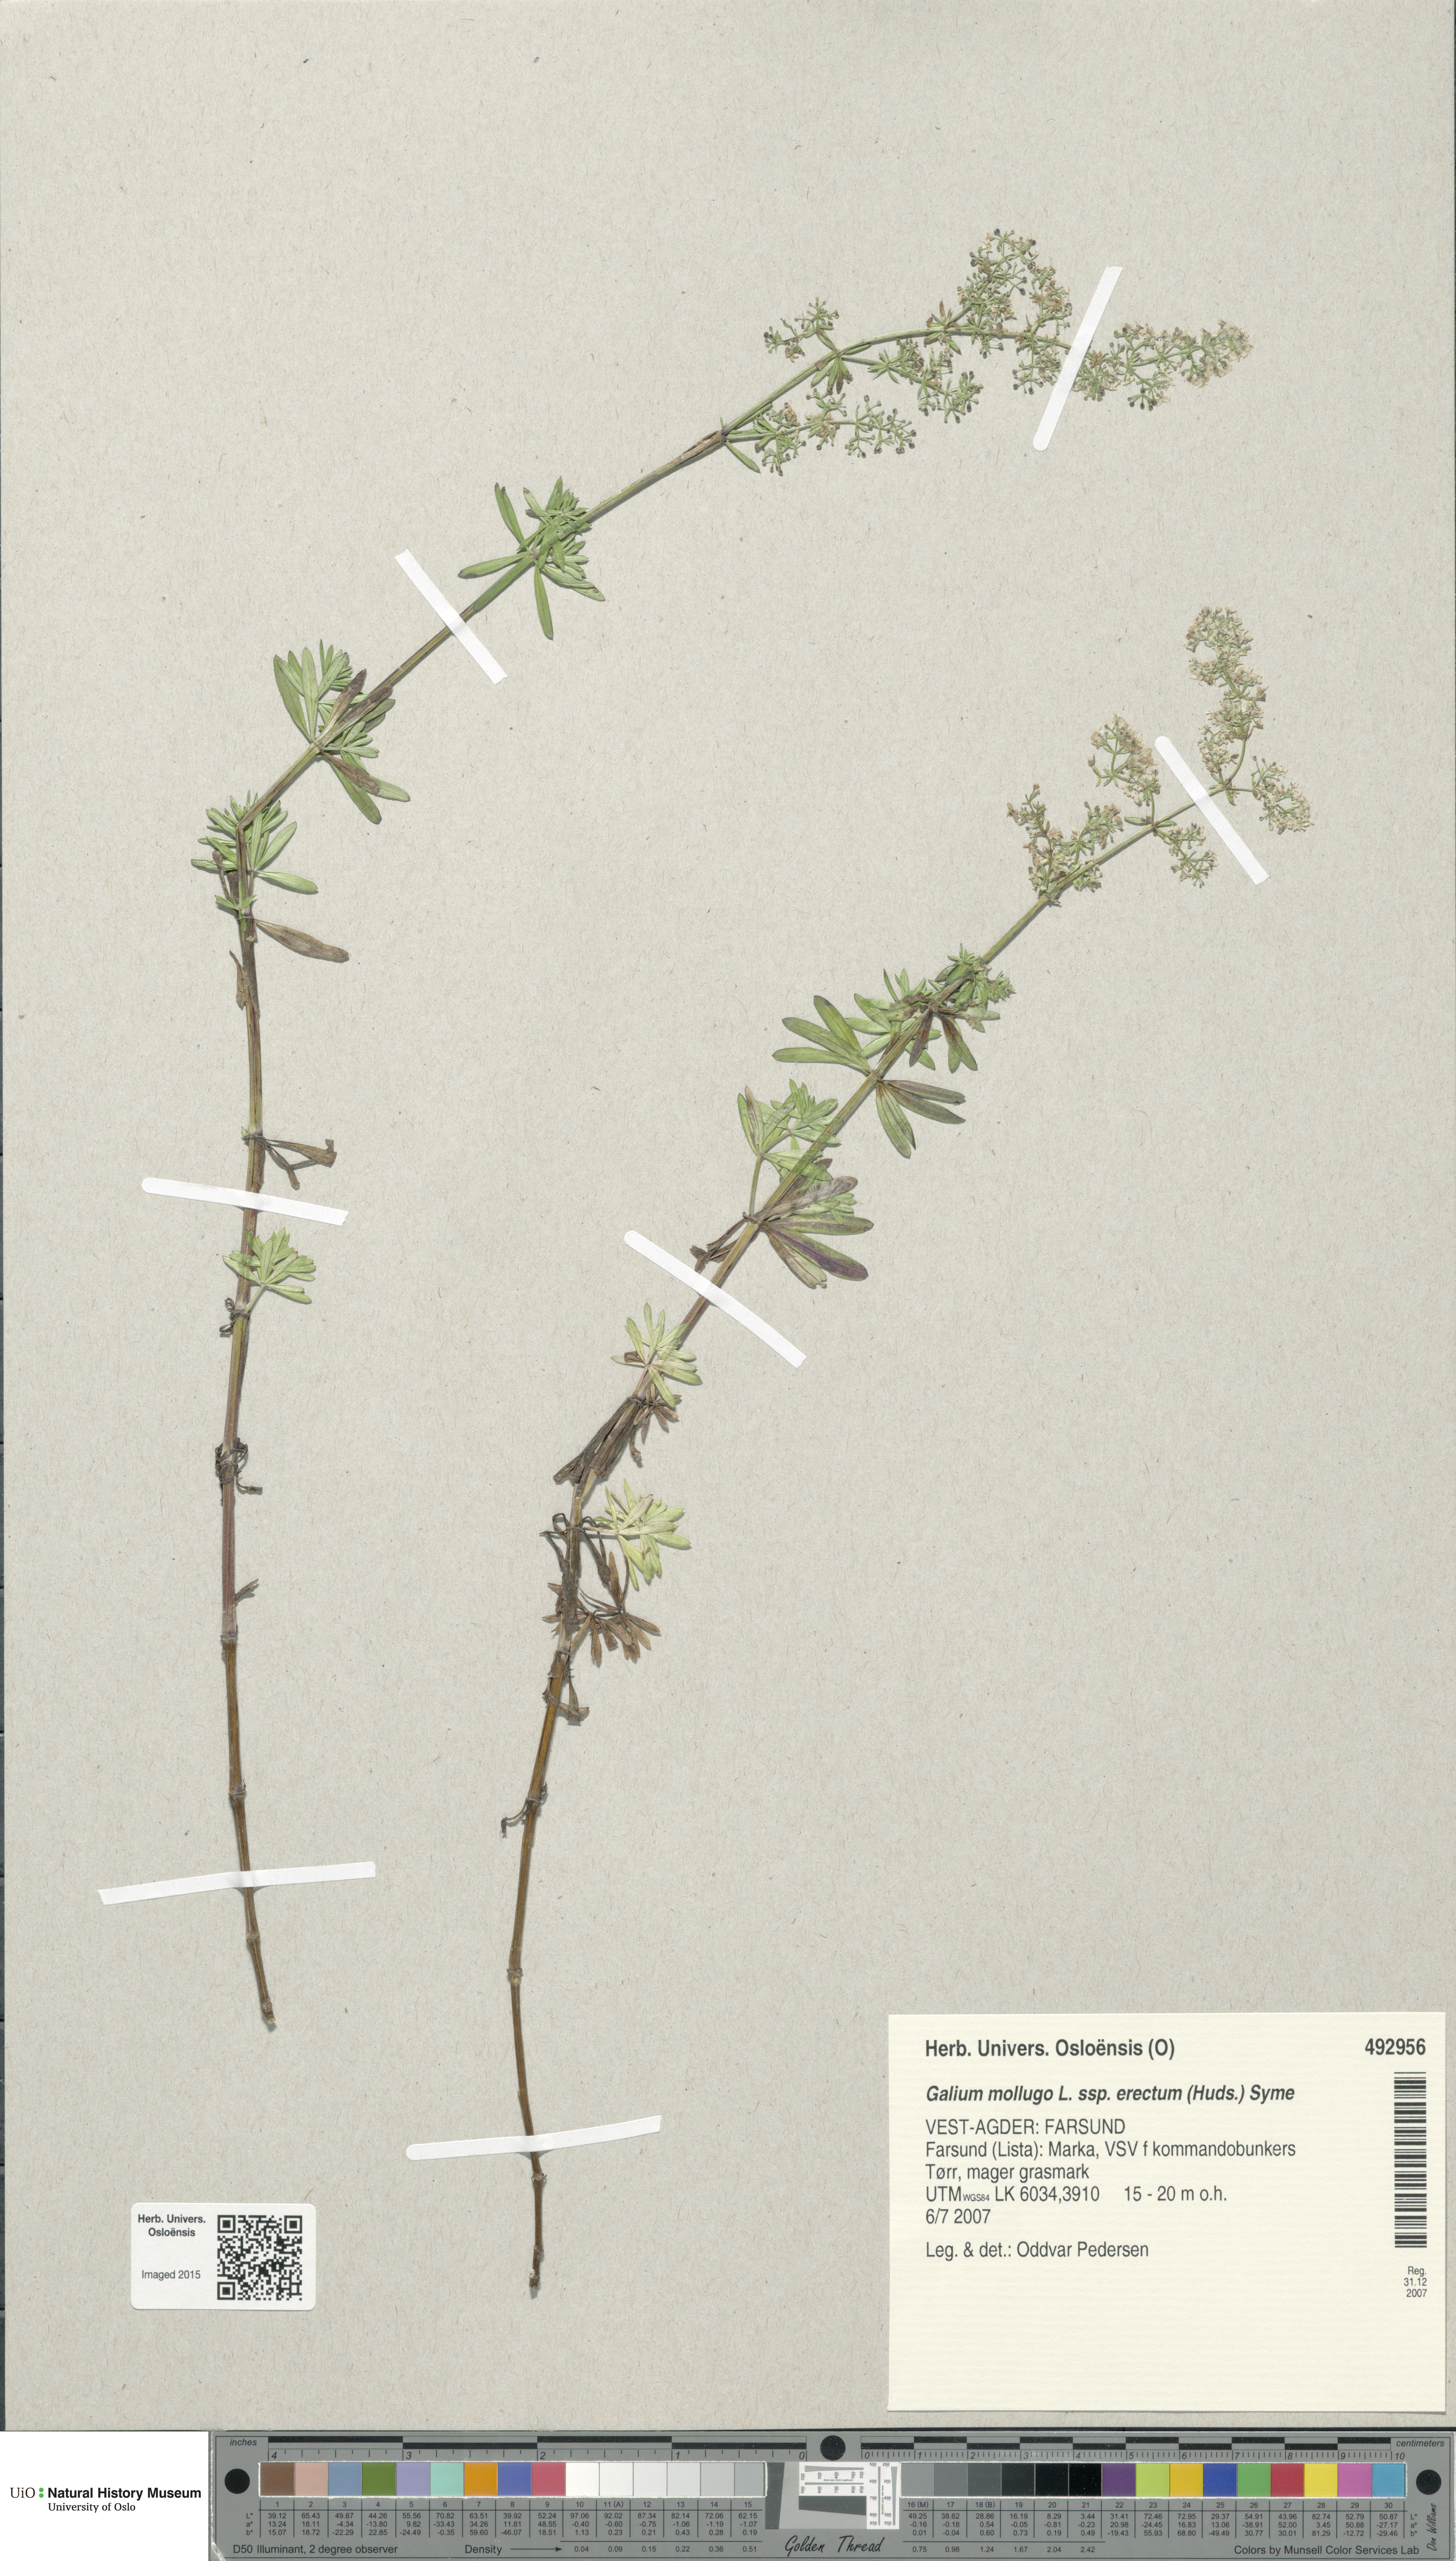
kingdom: Plantae
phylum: Tracheophyta
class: Magnoliopsida
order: Gentianales
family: Rubiaceae
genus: Galium
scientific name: Galium album
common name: White bedstraw
